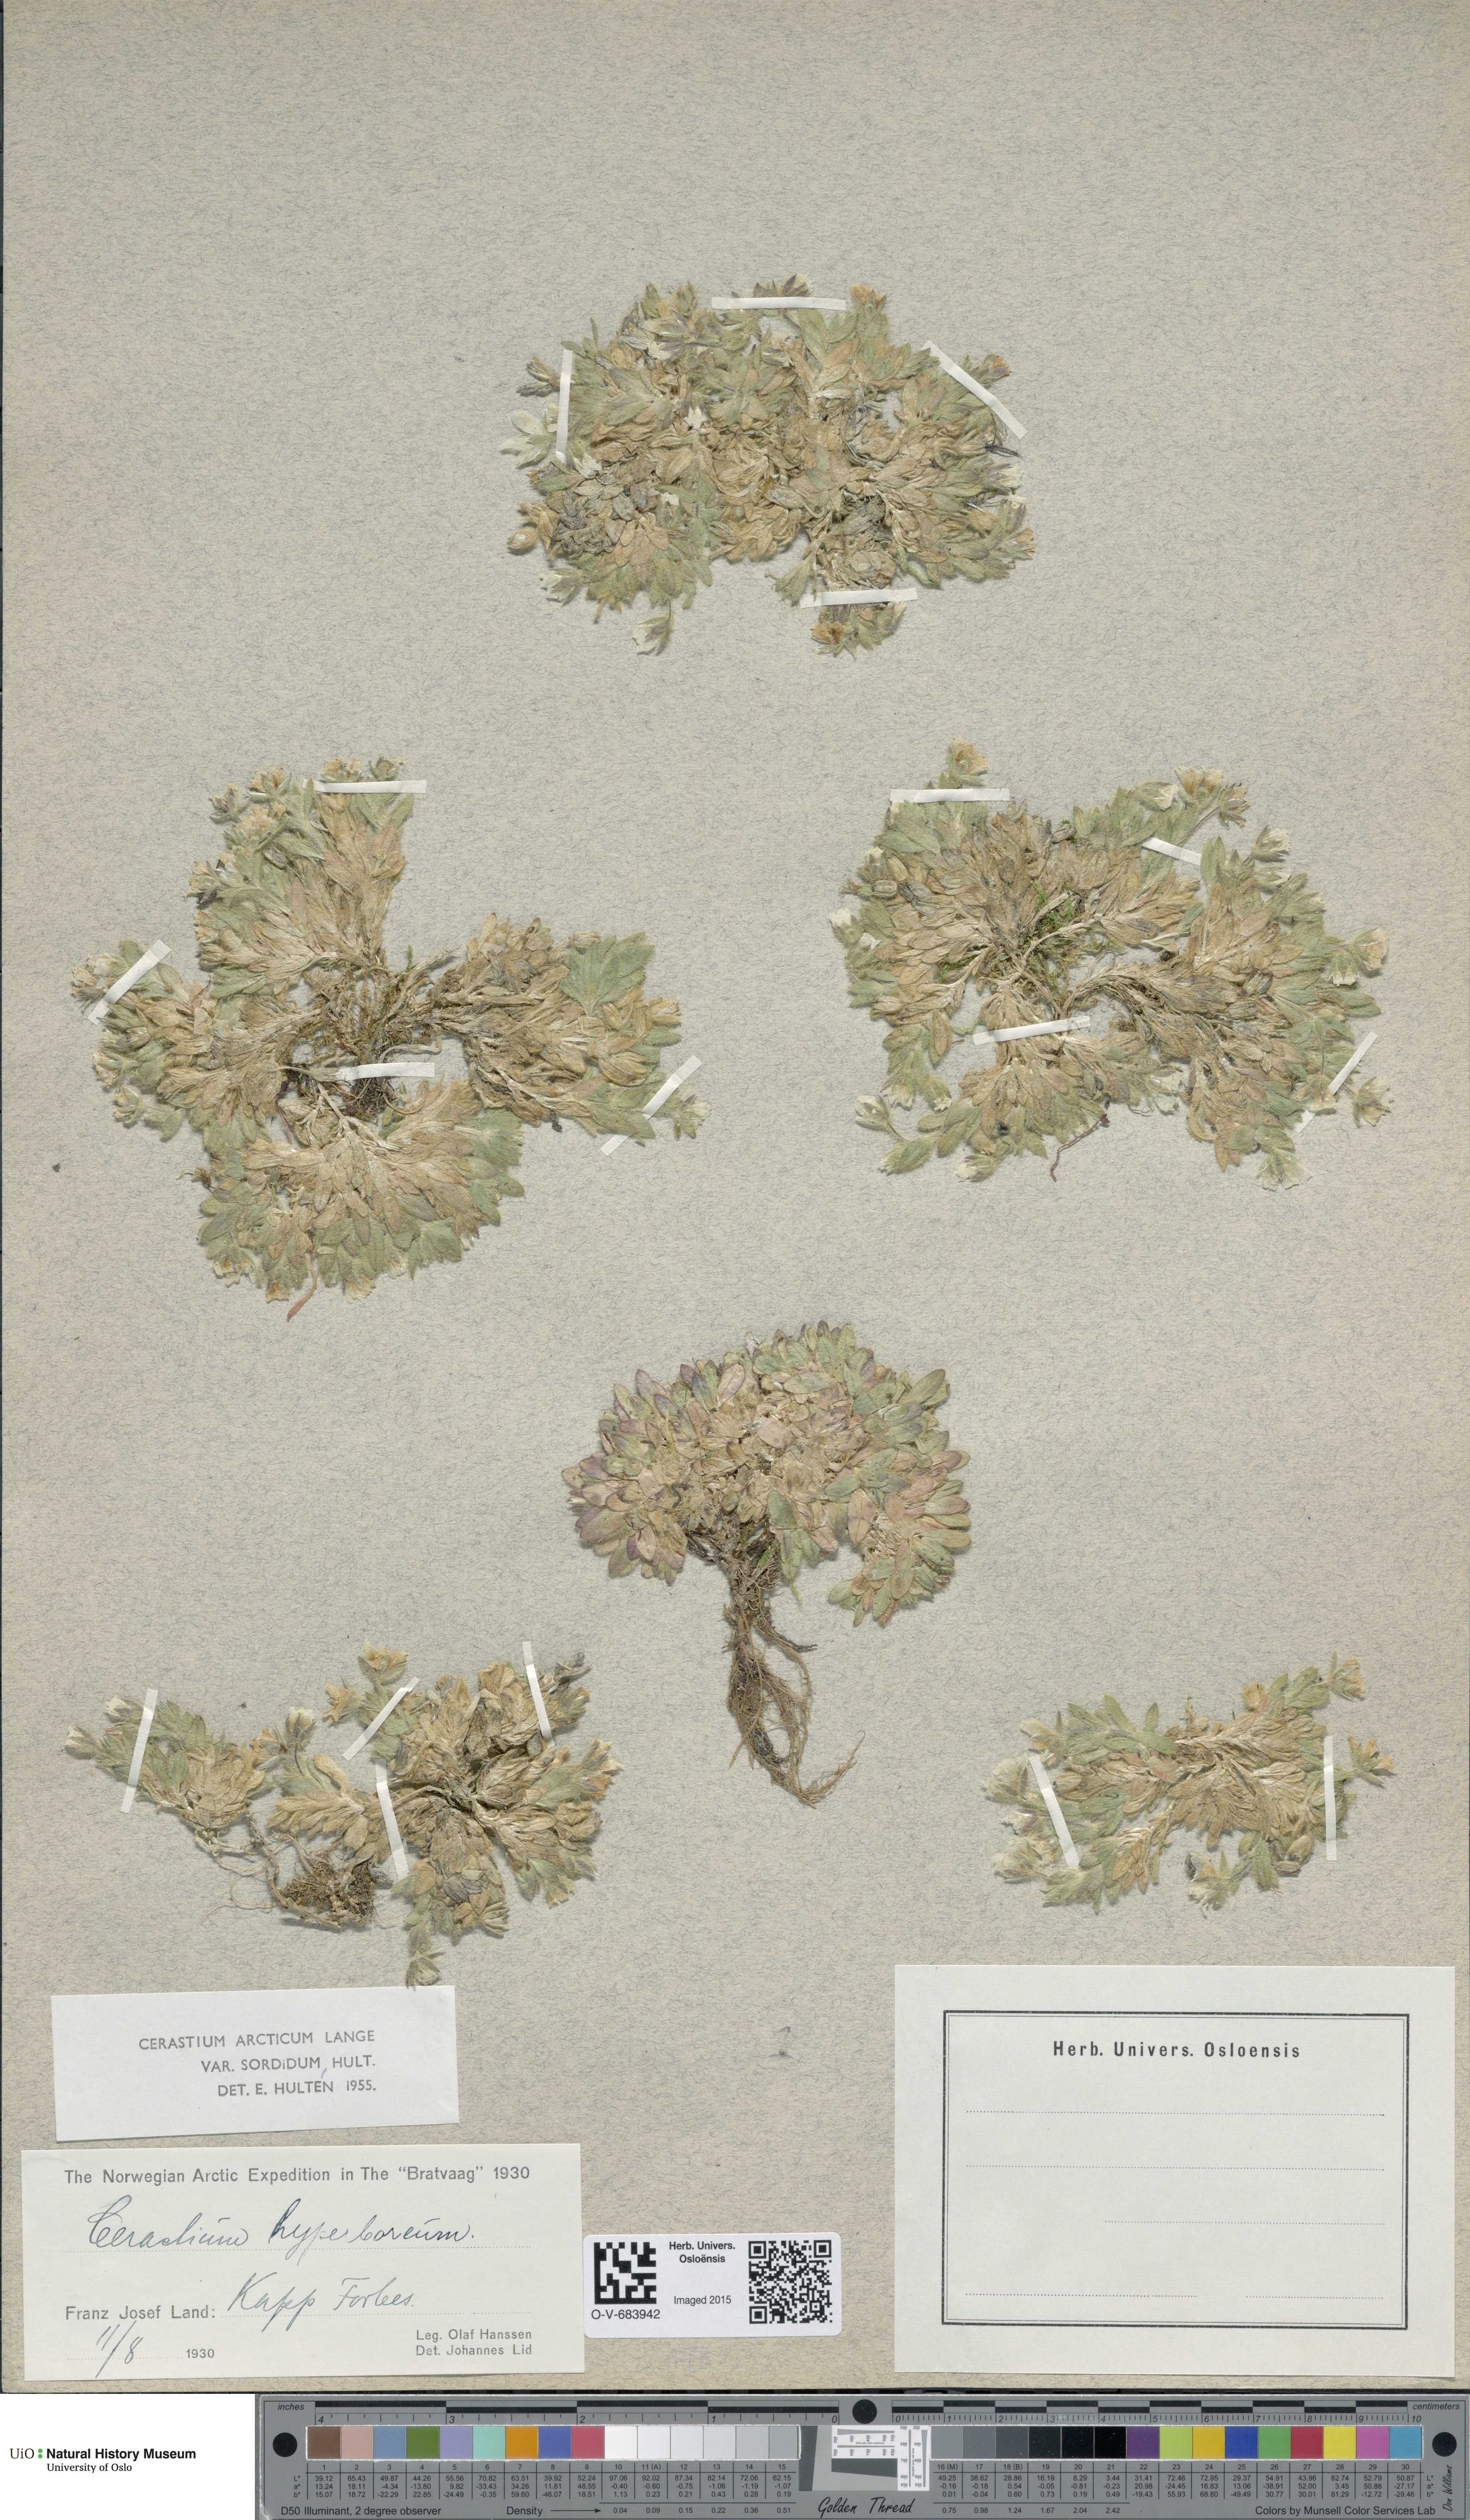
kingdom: Plantae
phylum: Tracheophyta
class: Magnoliopsida
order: Caryophyllales
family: Caryophyllaceae
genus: Cerastium
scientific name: Cerastium arcticum
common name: Arctic mouse-ear
